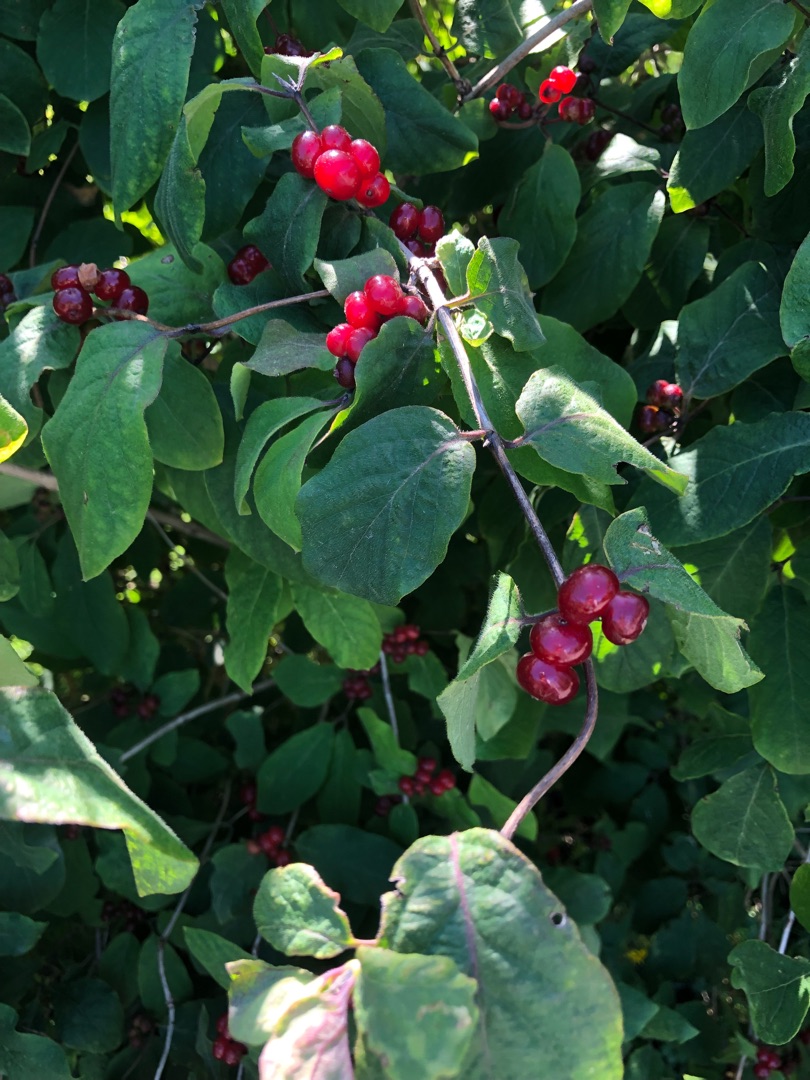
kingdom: Plantae
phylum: Tracheophyta
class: Magnoliopsida
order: Dipsacales
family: Caprifoliaceae
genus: Lonicera
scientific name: Lonicera xylosteum
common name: Dunet gedeblad
